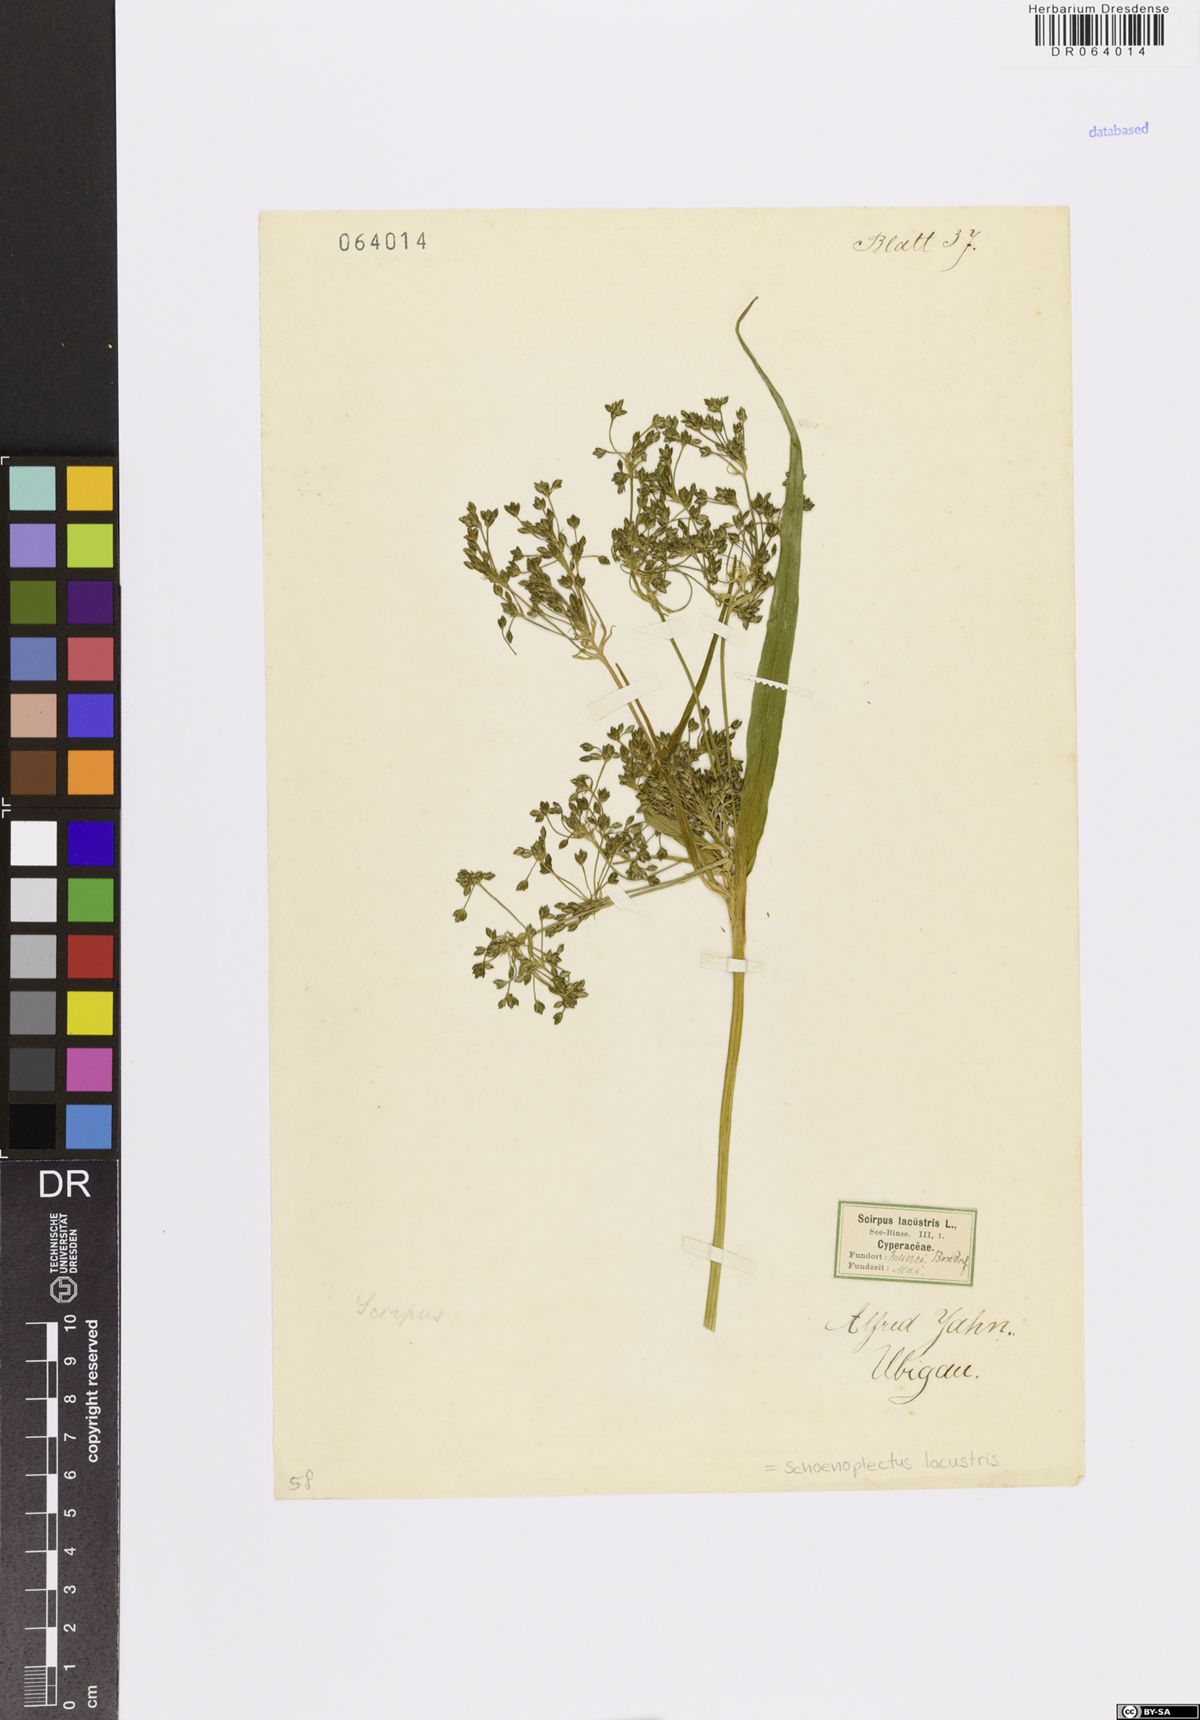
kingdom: Plantae
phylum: Tracheophyta
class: Liliopsida
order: Poales
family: Cyperaceae
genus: Schoenoplectus
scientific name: Schoenoplectus lacustris
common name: Common club-rush
